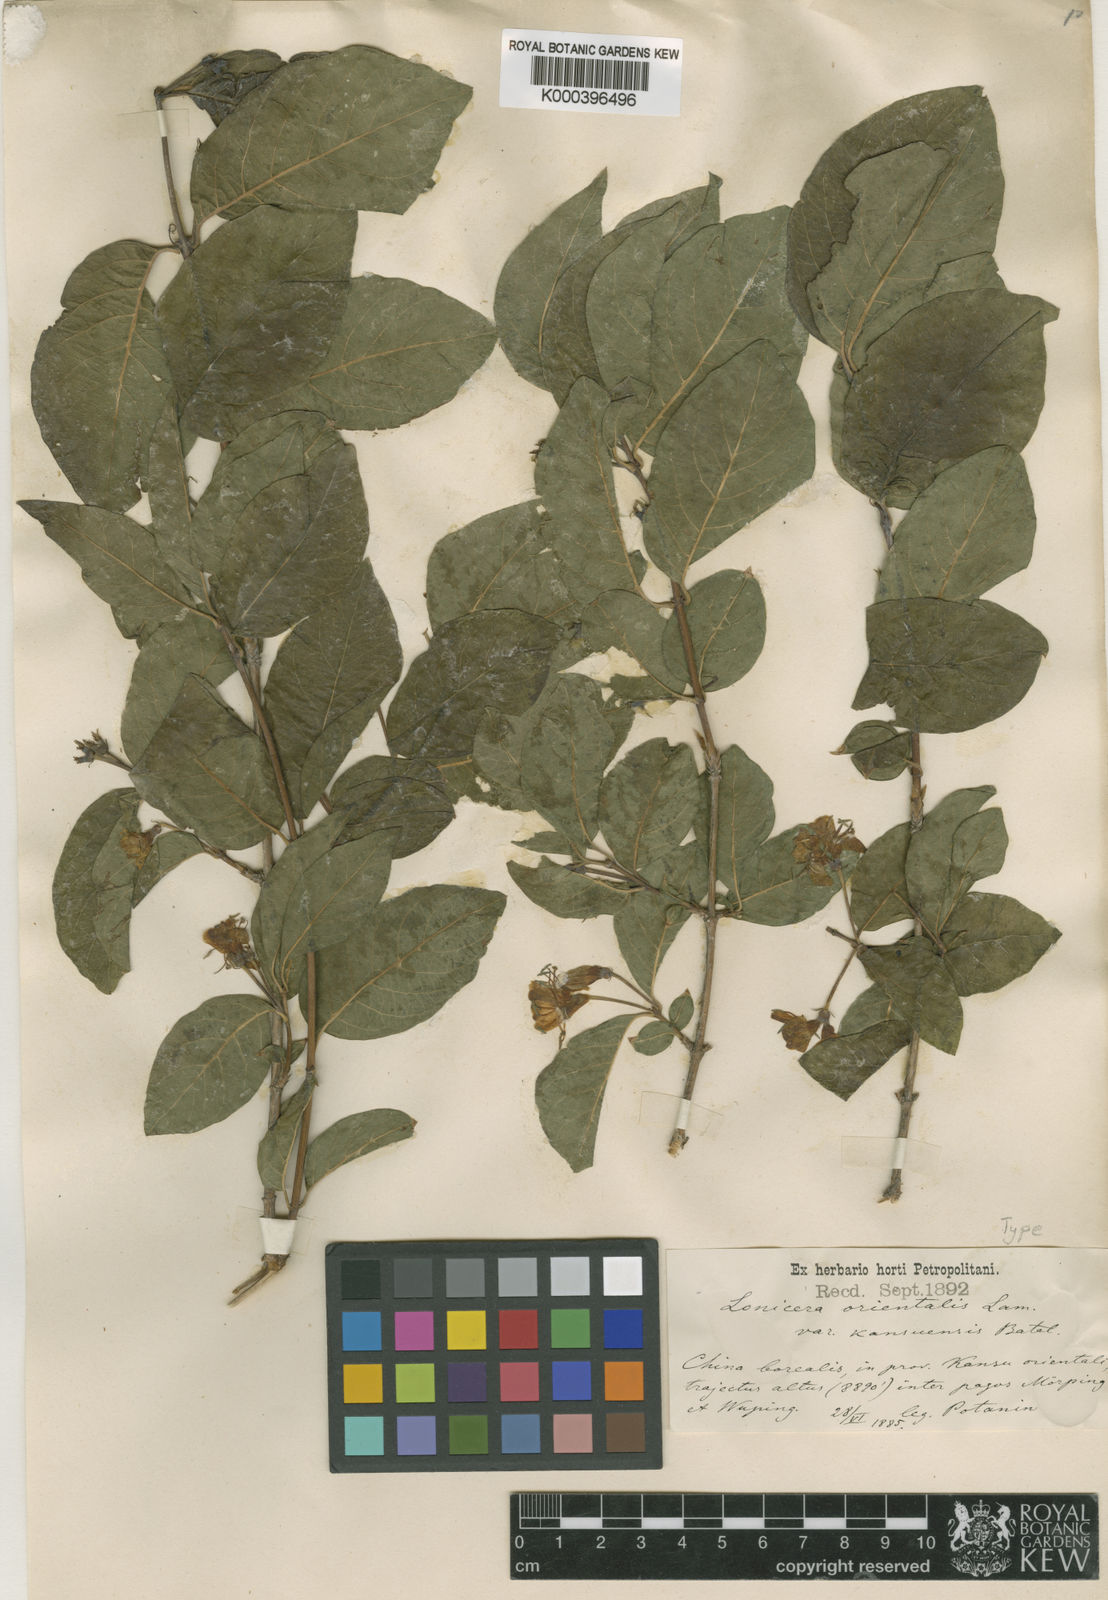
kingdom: Plantae
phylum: Tracheophyta
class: Magnoliopsida
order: Dipsacales
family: Caprifoliaceae
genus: Lonicera
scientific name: Lonicera caucasica
